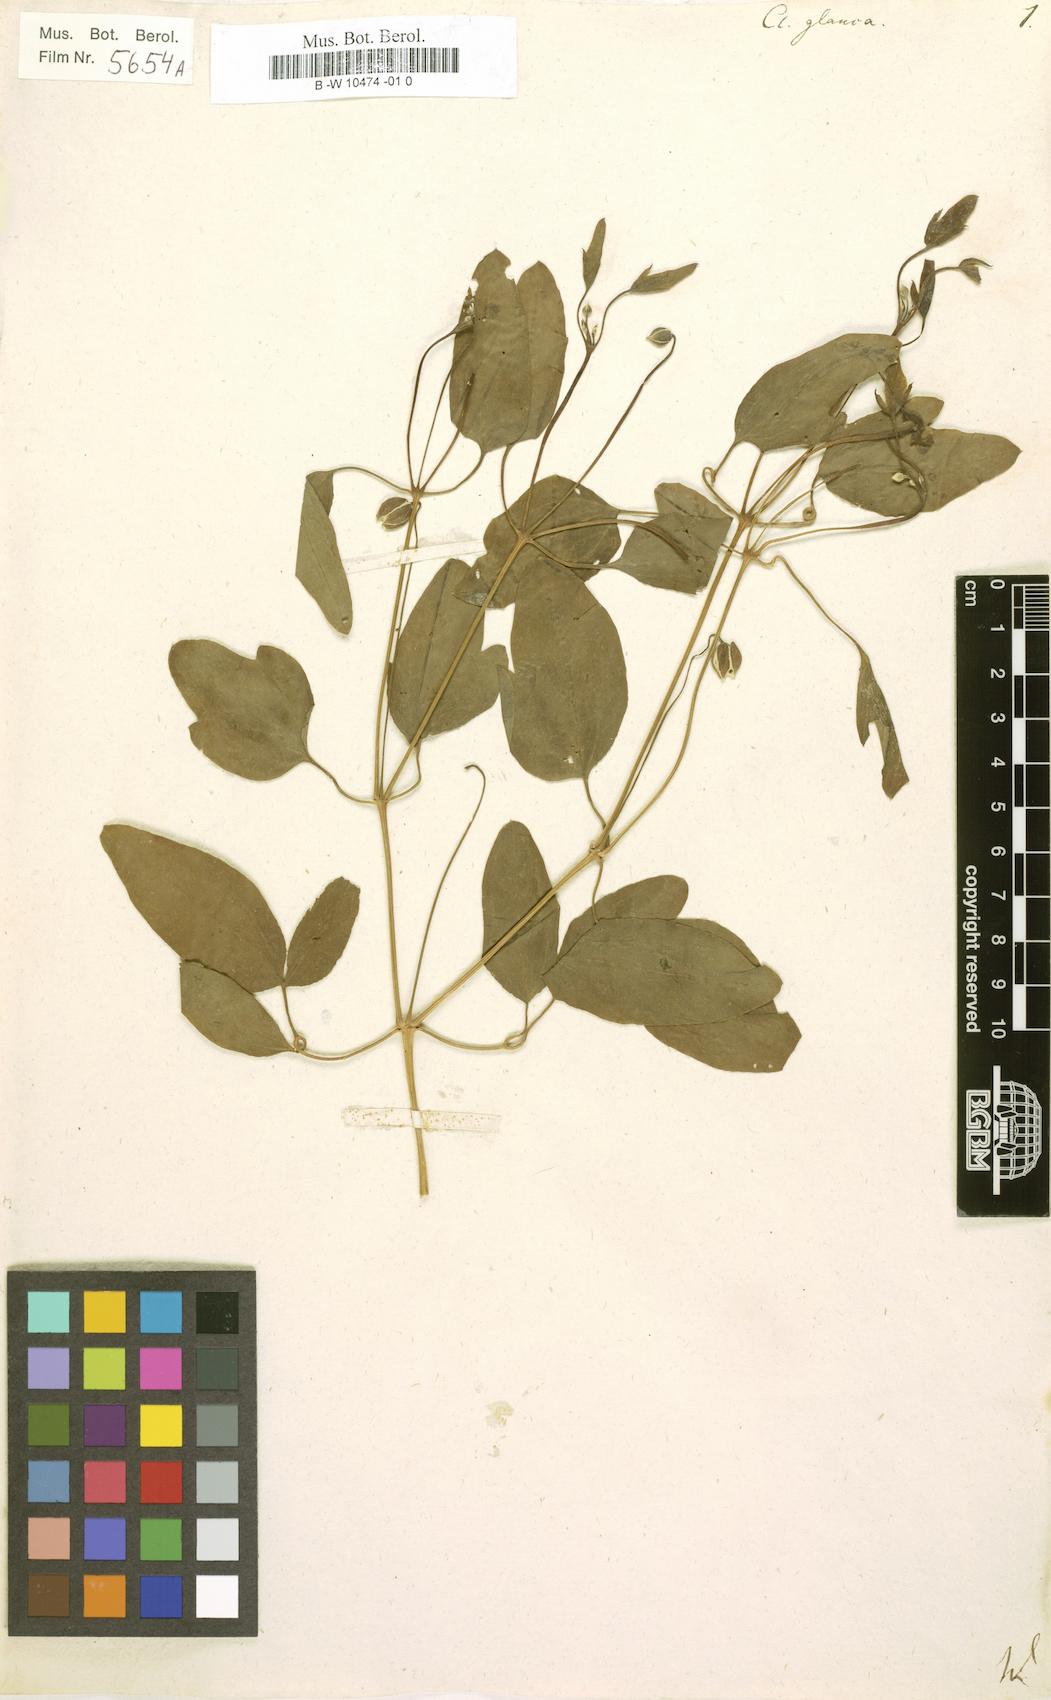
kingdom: Plantae
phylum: Tracheophyta
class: Magnoliopsida
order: Ranunculales
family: Ranunculaceae
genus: Clematis
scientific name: Clematis glauca
